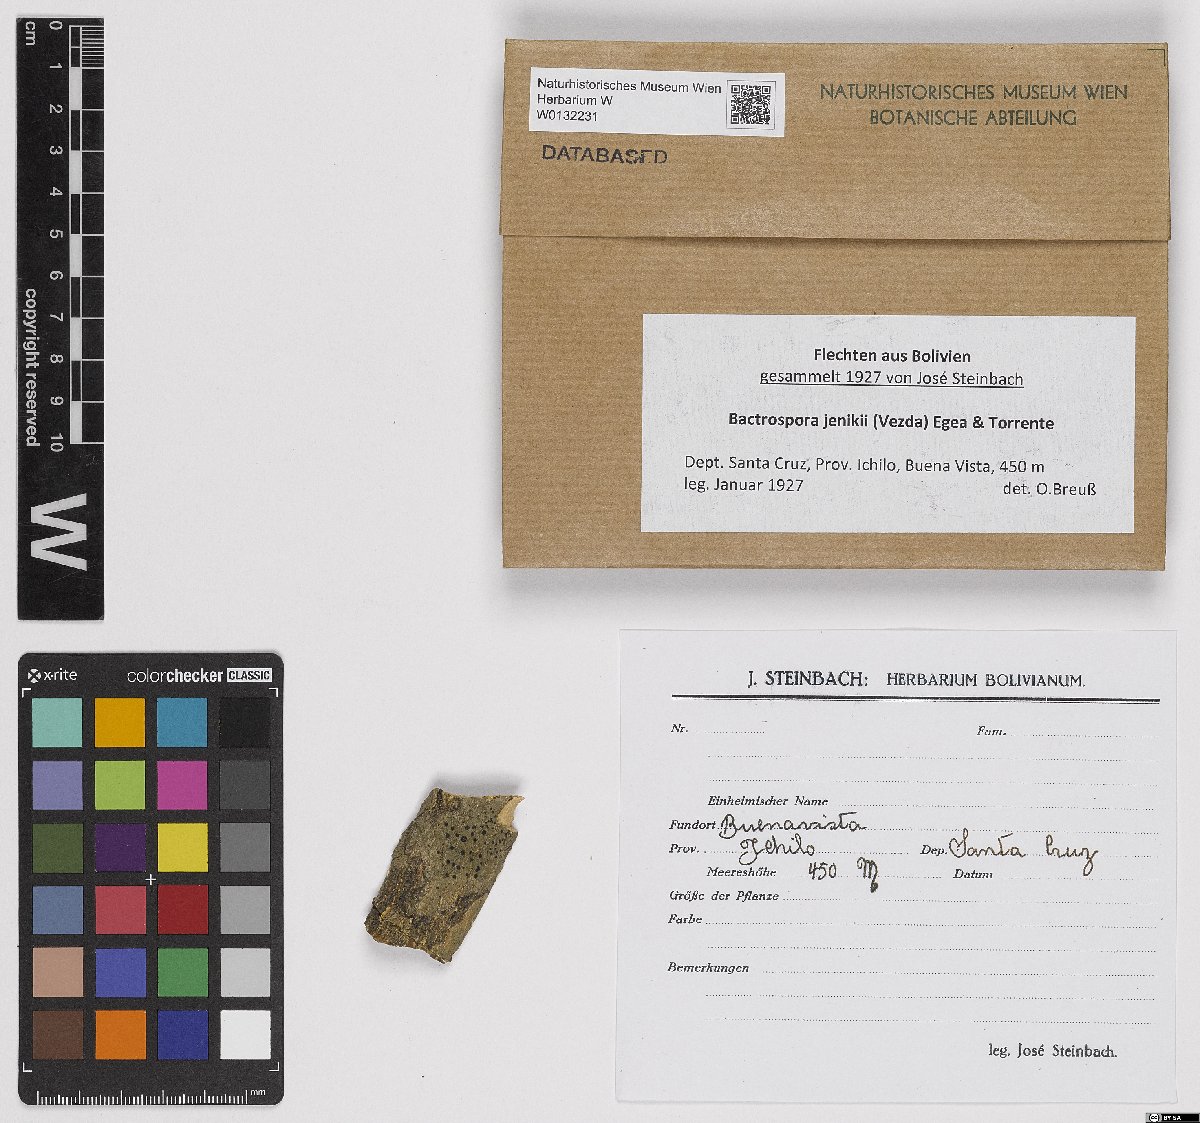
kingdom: Fungi
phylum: Ascomycota
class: Arthoniomycetes
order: Arthoniales
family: Roccellaceae
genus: Bactrospora
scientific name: Bactrospora jenikii
